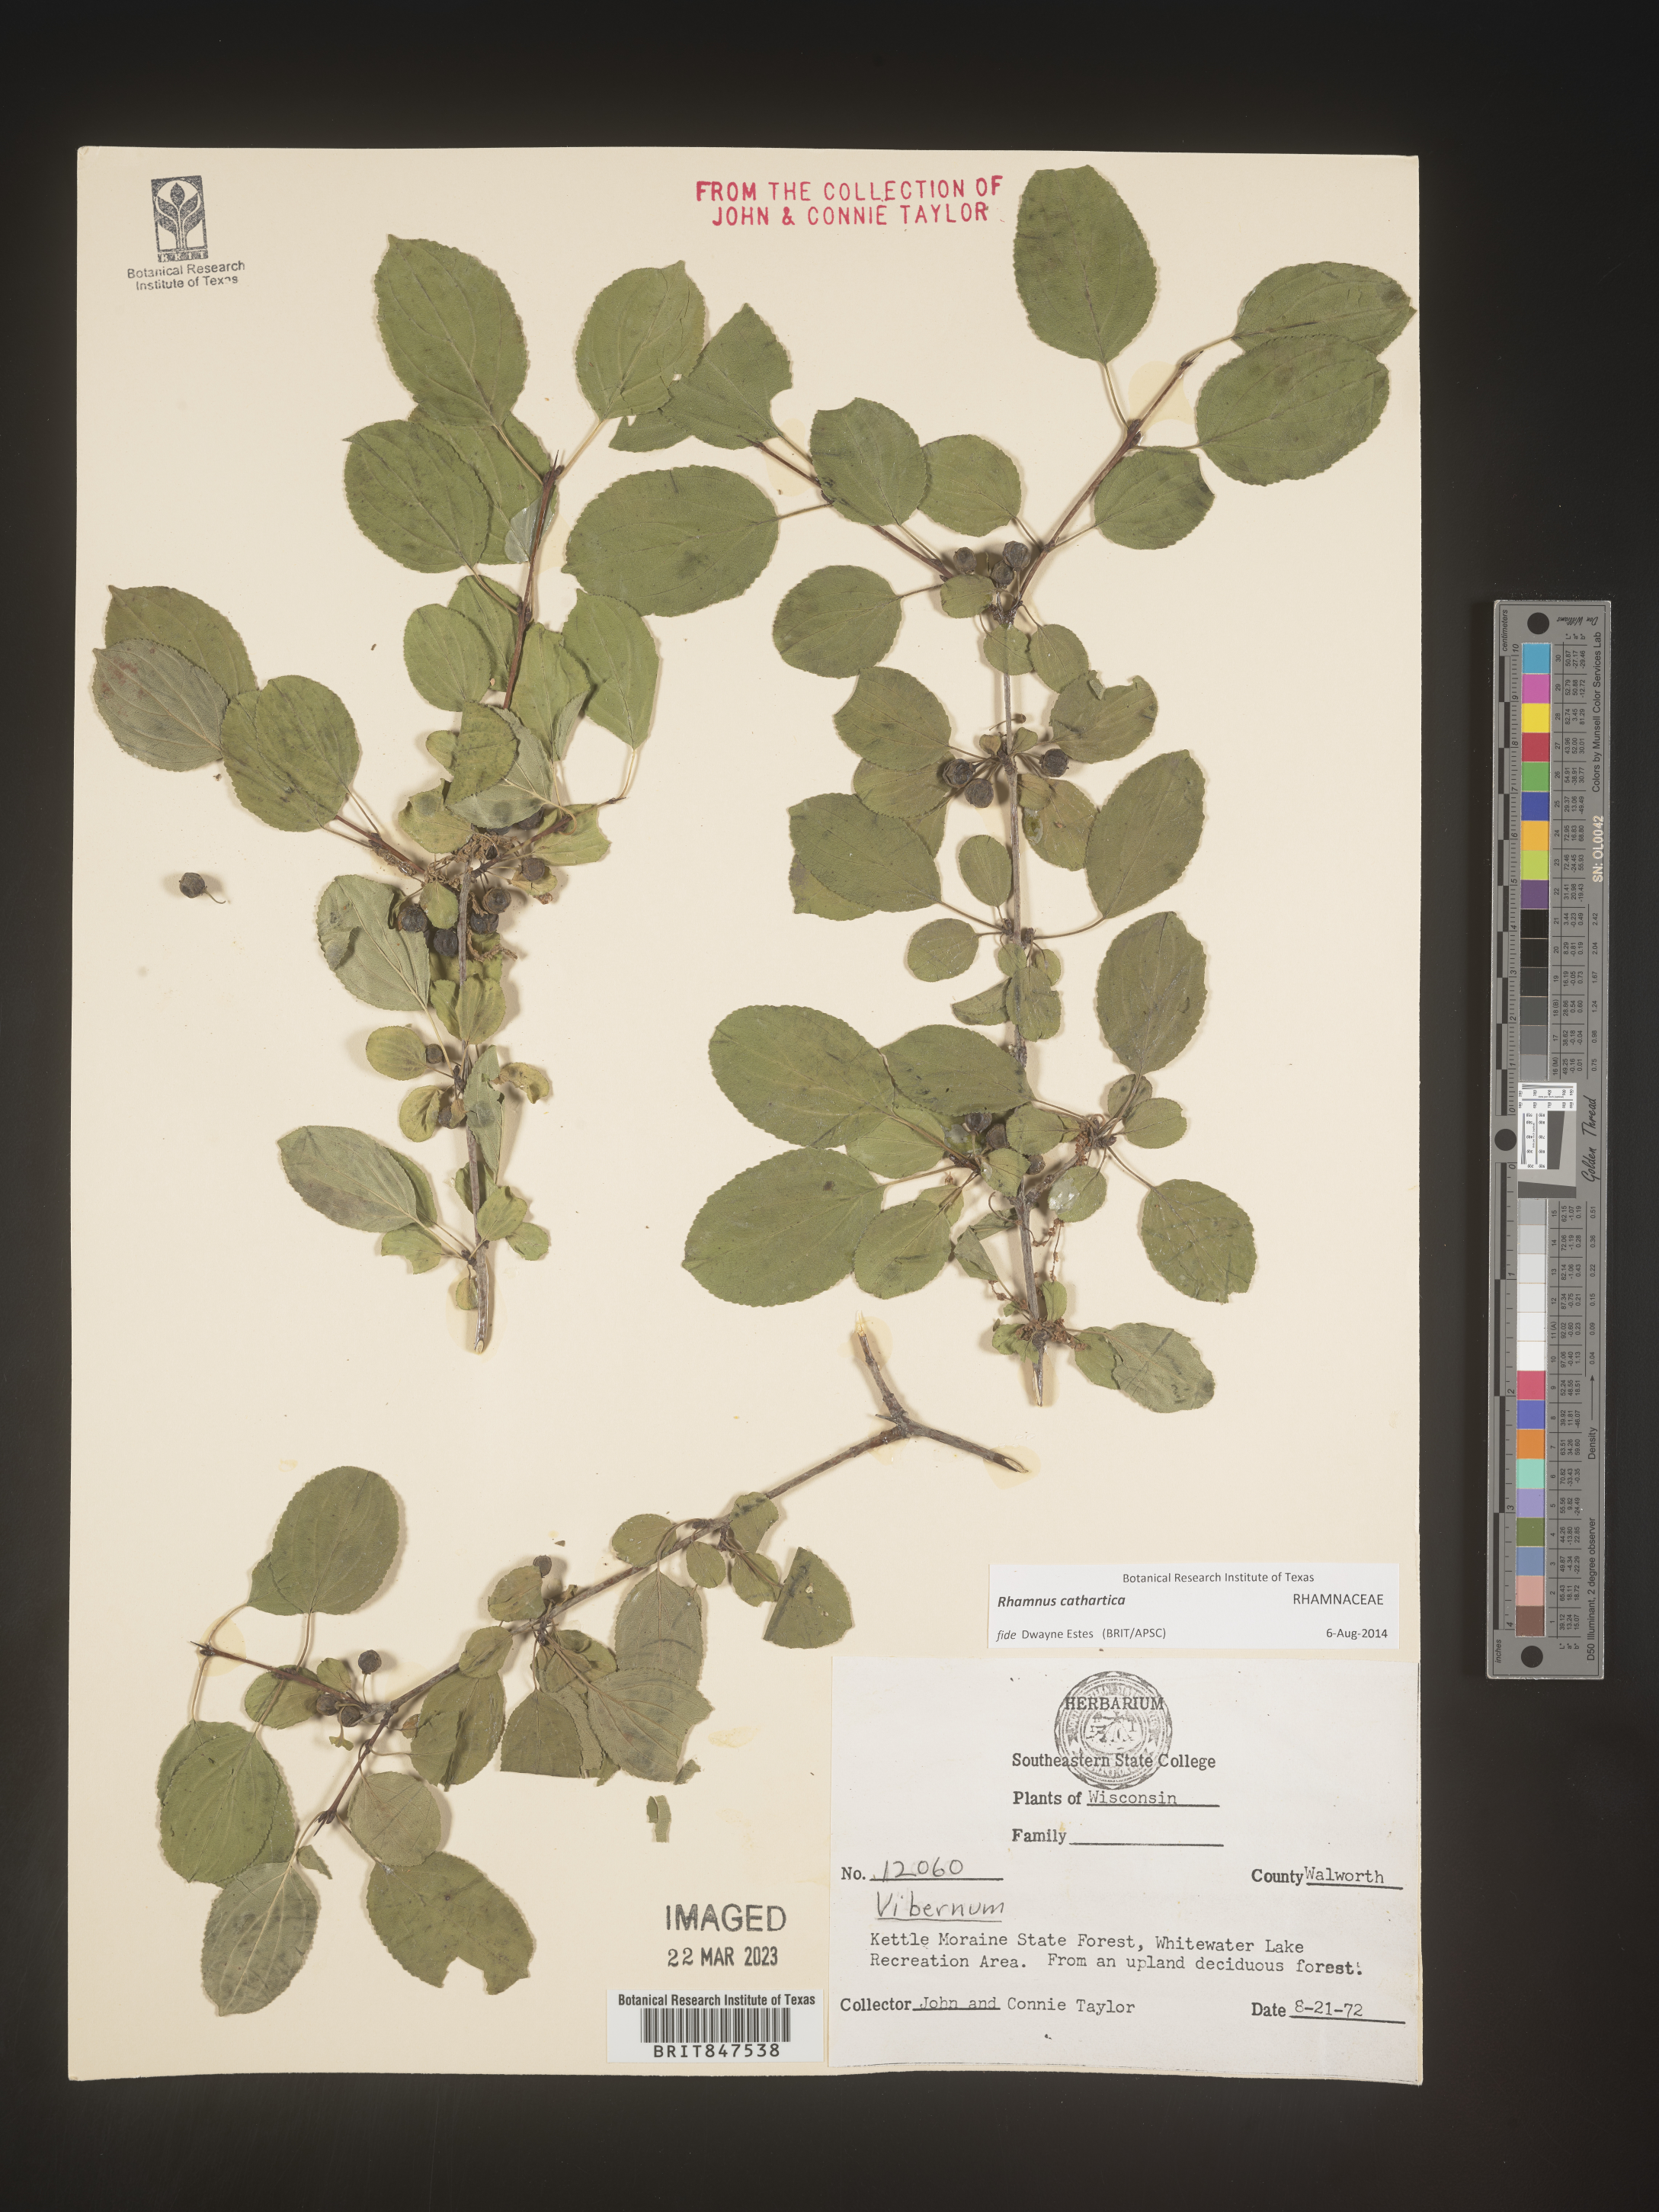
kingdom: Plantae
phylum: Tracheophyta
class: Magnoliopsida
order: Rosales
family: Rhamnaceae
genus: Rhamnus
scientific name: Rhamnus cathartica
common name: Common buckthorn
